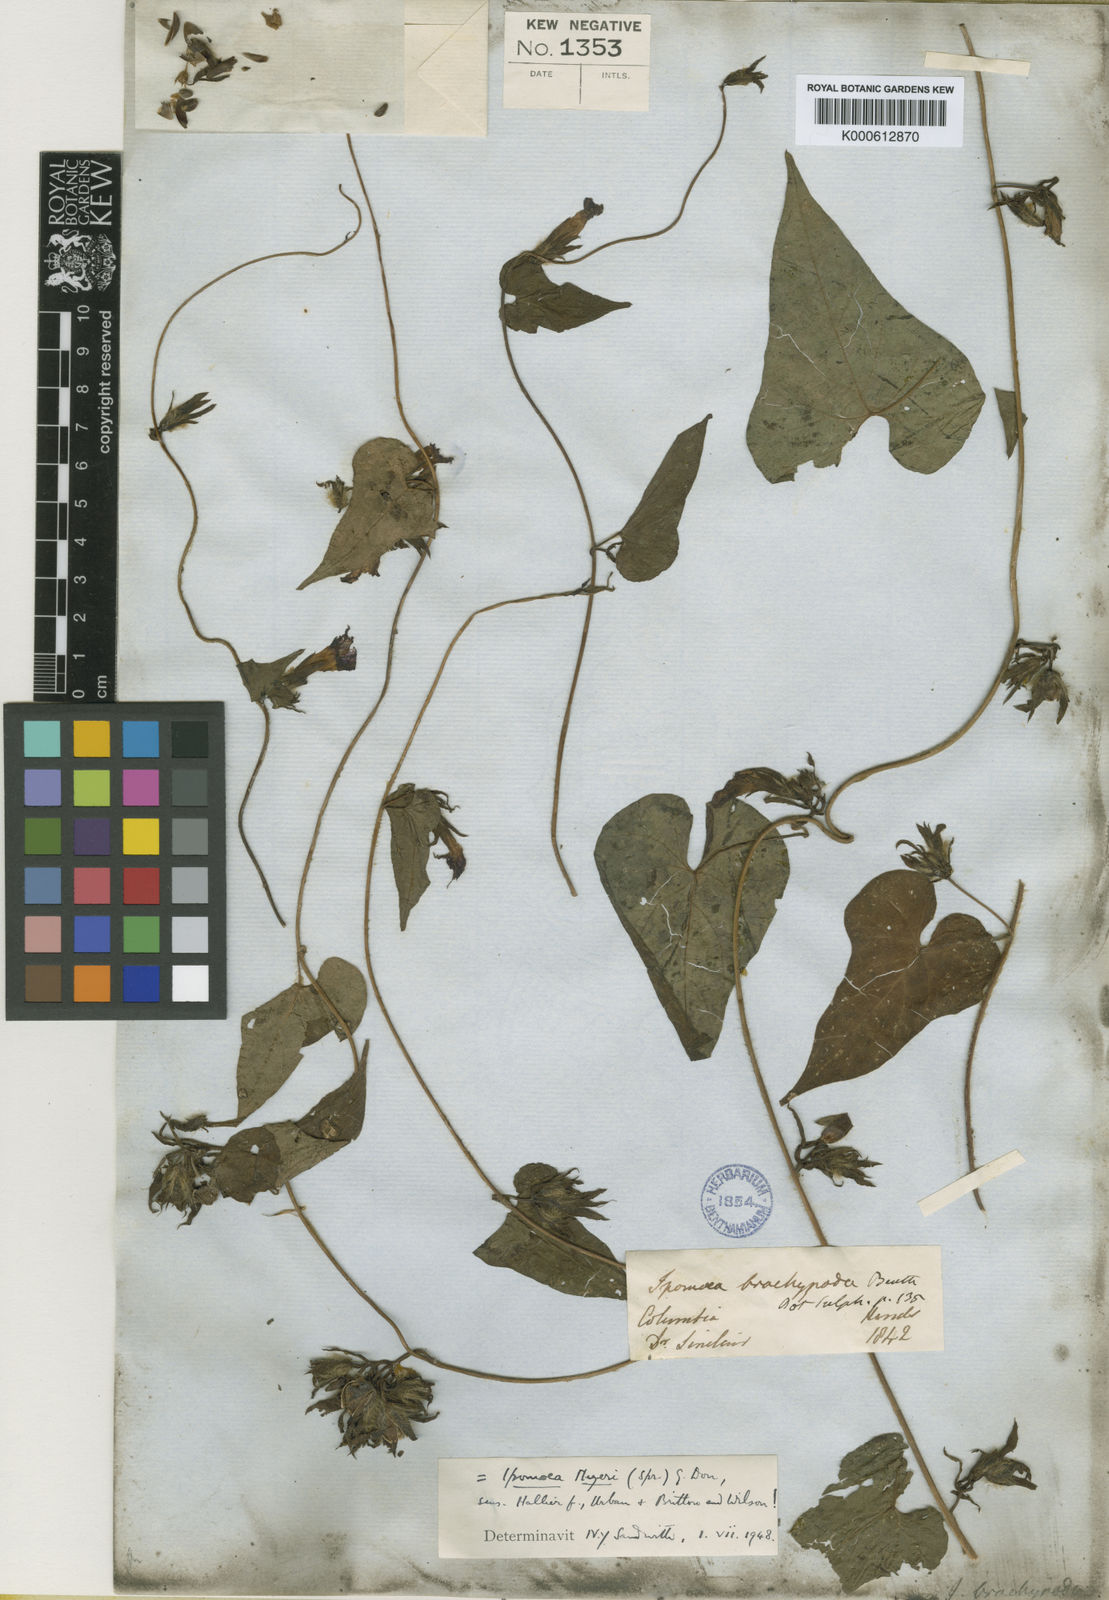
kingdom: Plantae
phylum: Tracheophyta
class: Magnoliopsida
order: Solanales
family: Convolvulaceae
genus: Ipomoea
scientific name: Ipomoea meyeri
